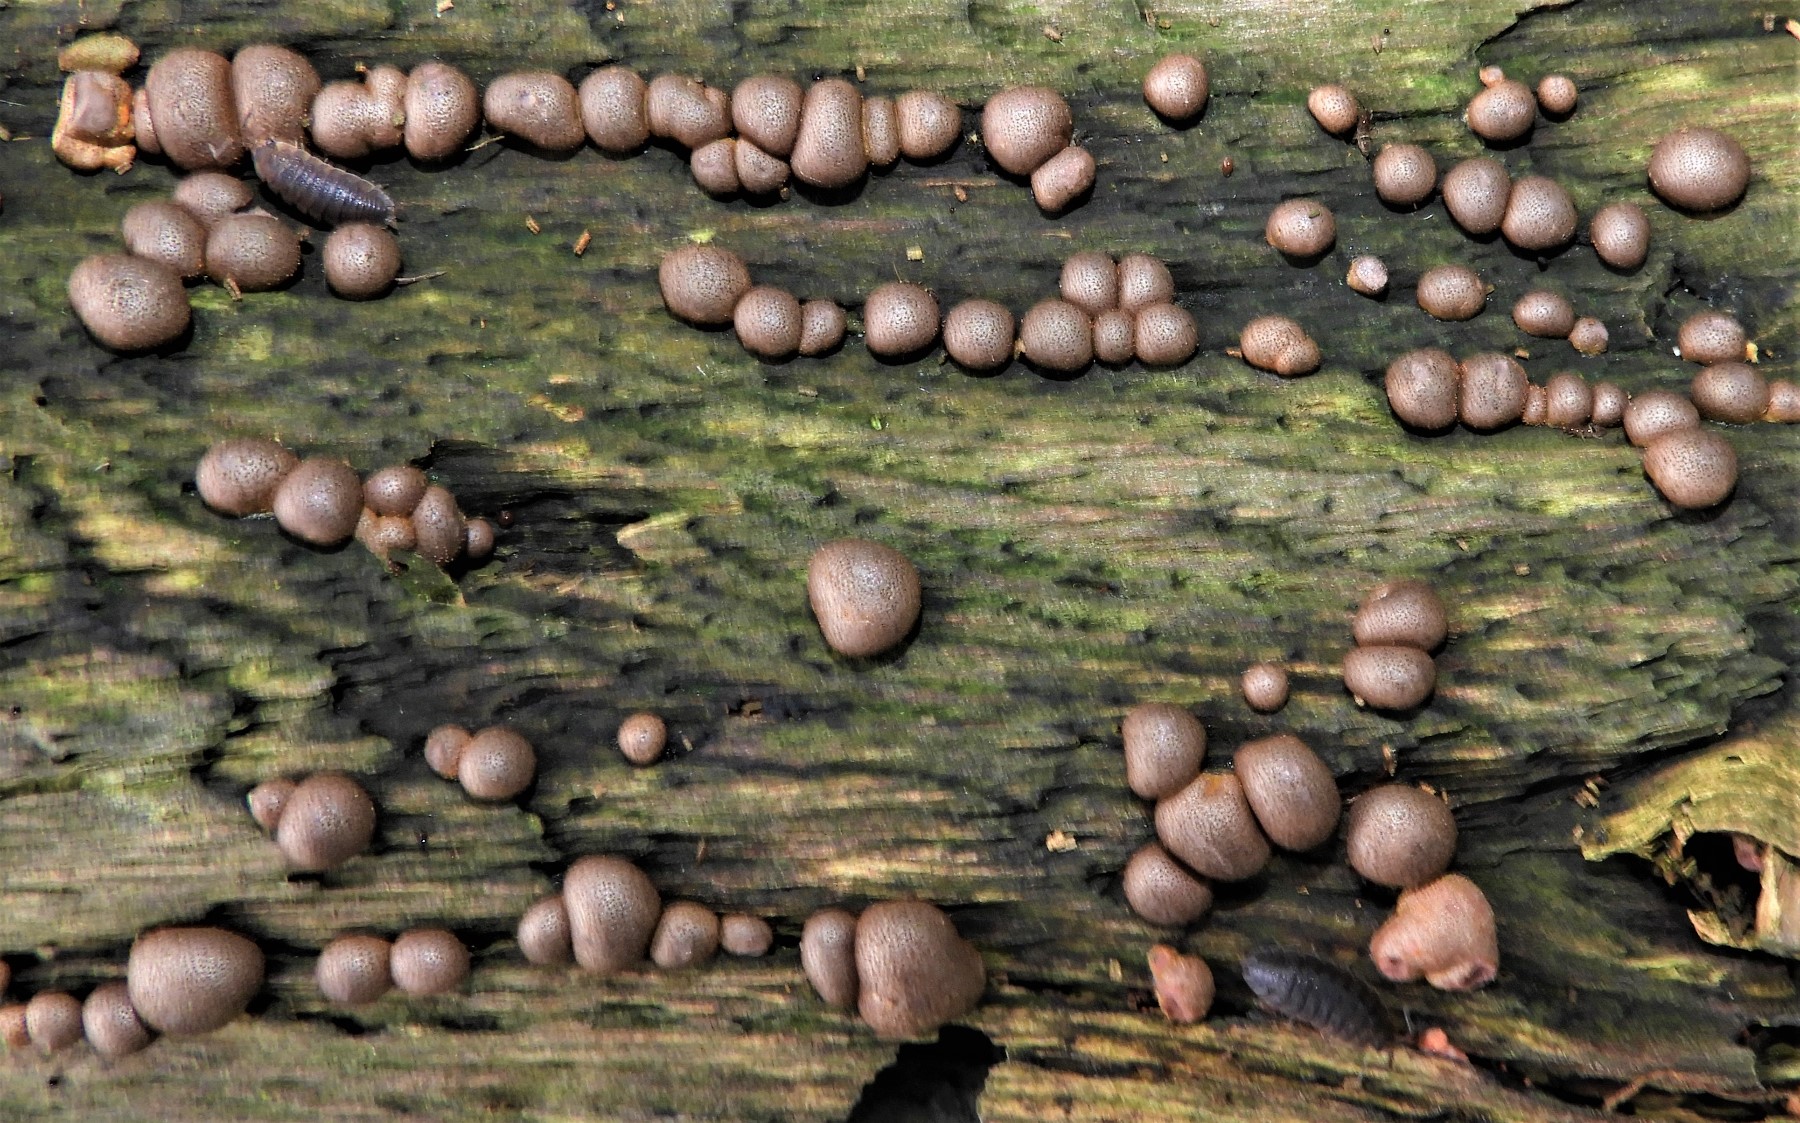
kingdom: Protozoa
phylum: Mycetozoa
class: Myxomycetes
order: Cribrariales
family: Tubiferaceae
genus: Lycogala
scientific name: Lycogala epidendrum
